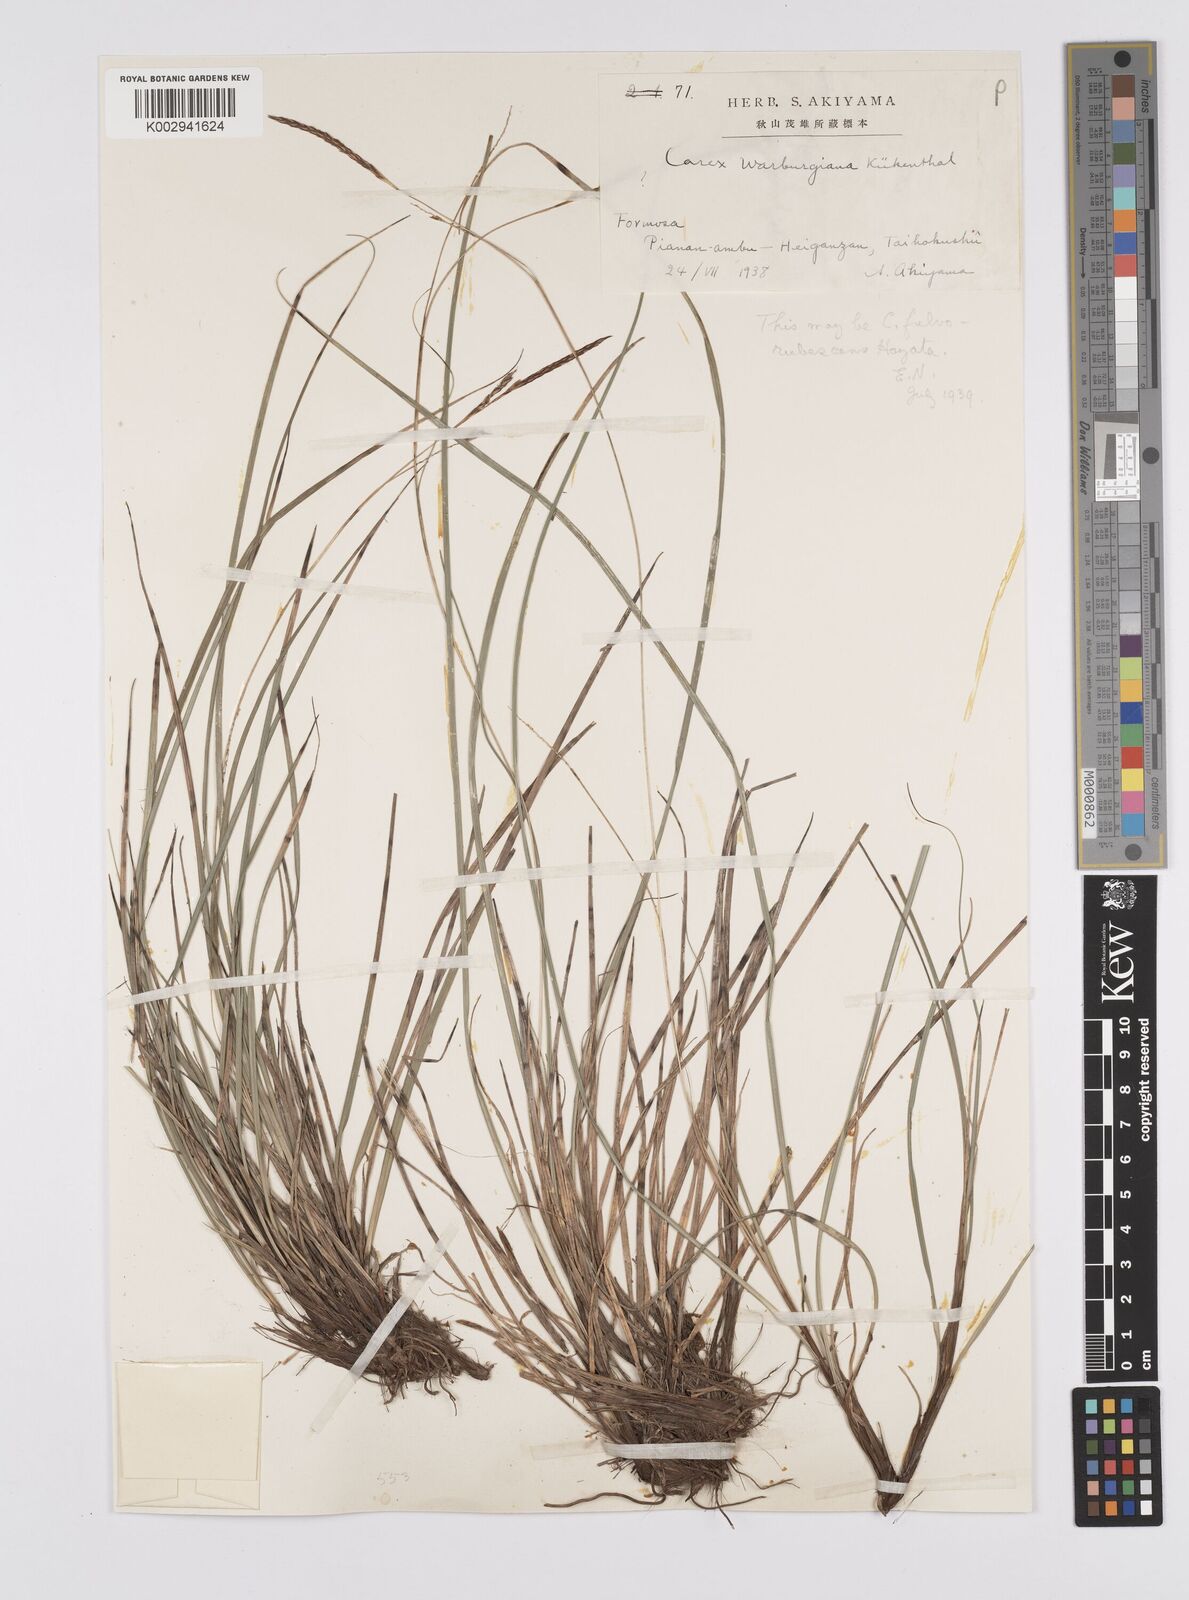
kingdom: Plantae
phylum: Tracheophyta
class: Liliopsida
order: Poales
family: Cyperaceae
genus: Carex
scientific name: Carex makinoensis
